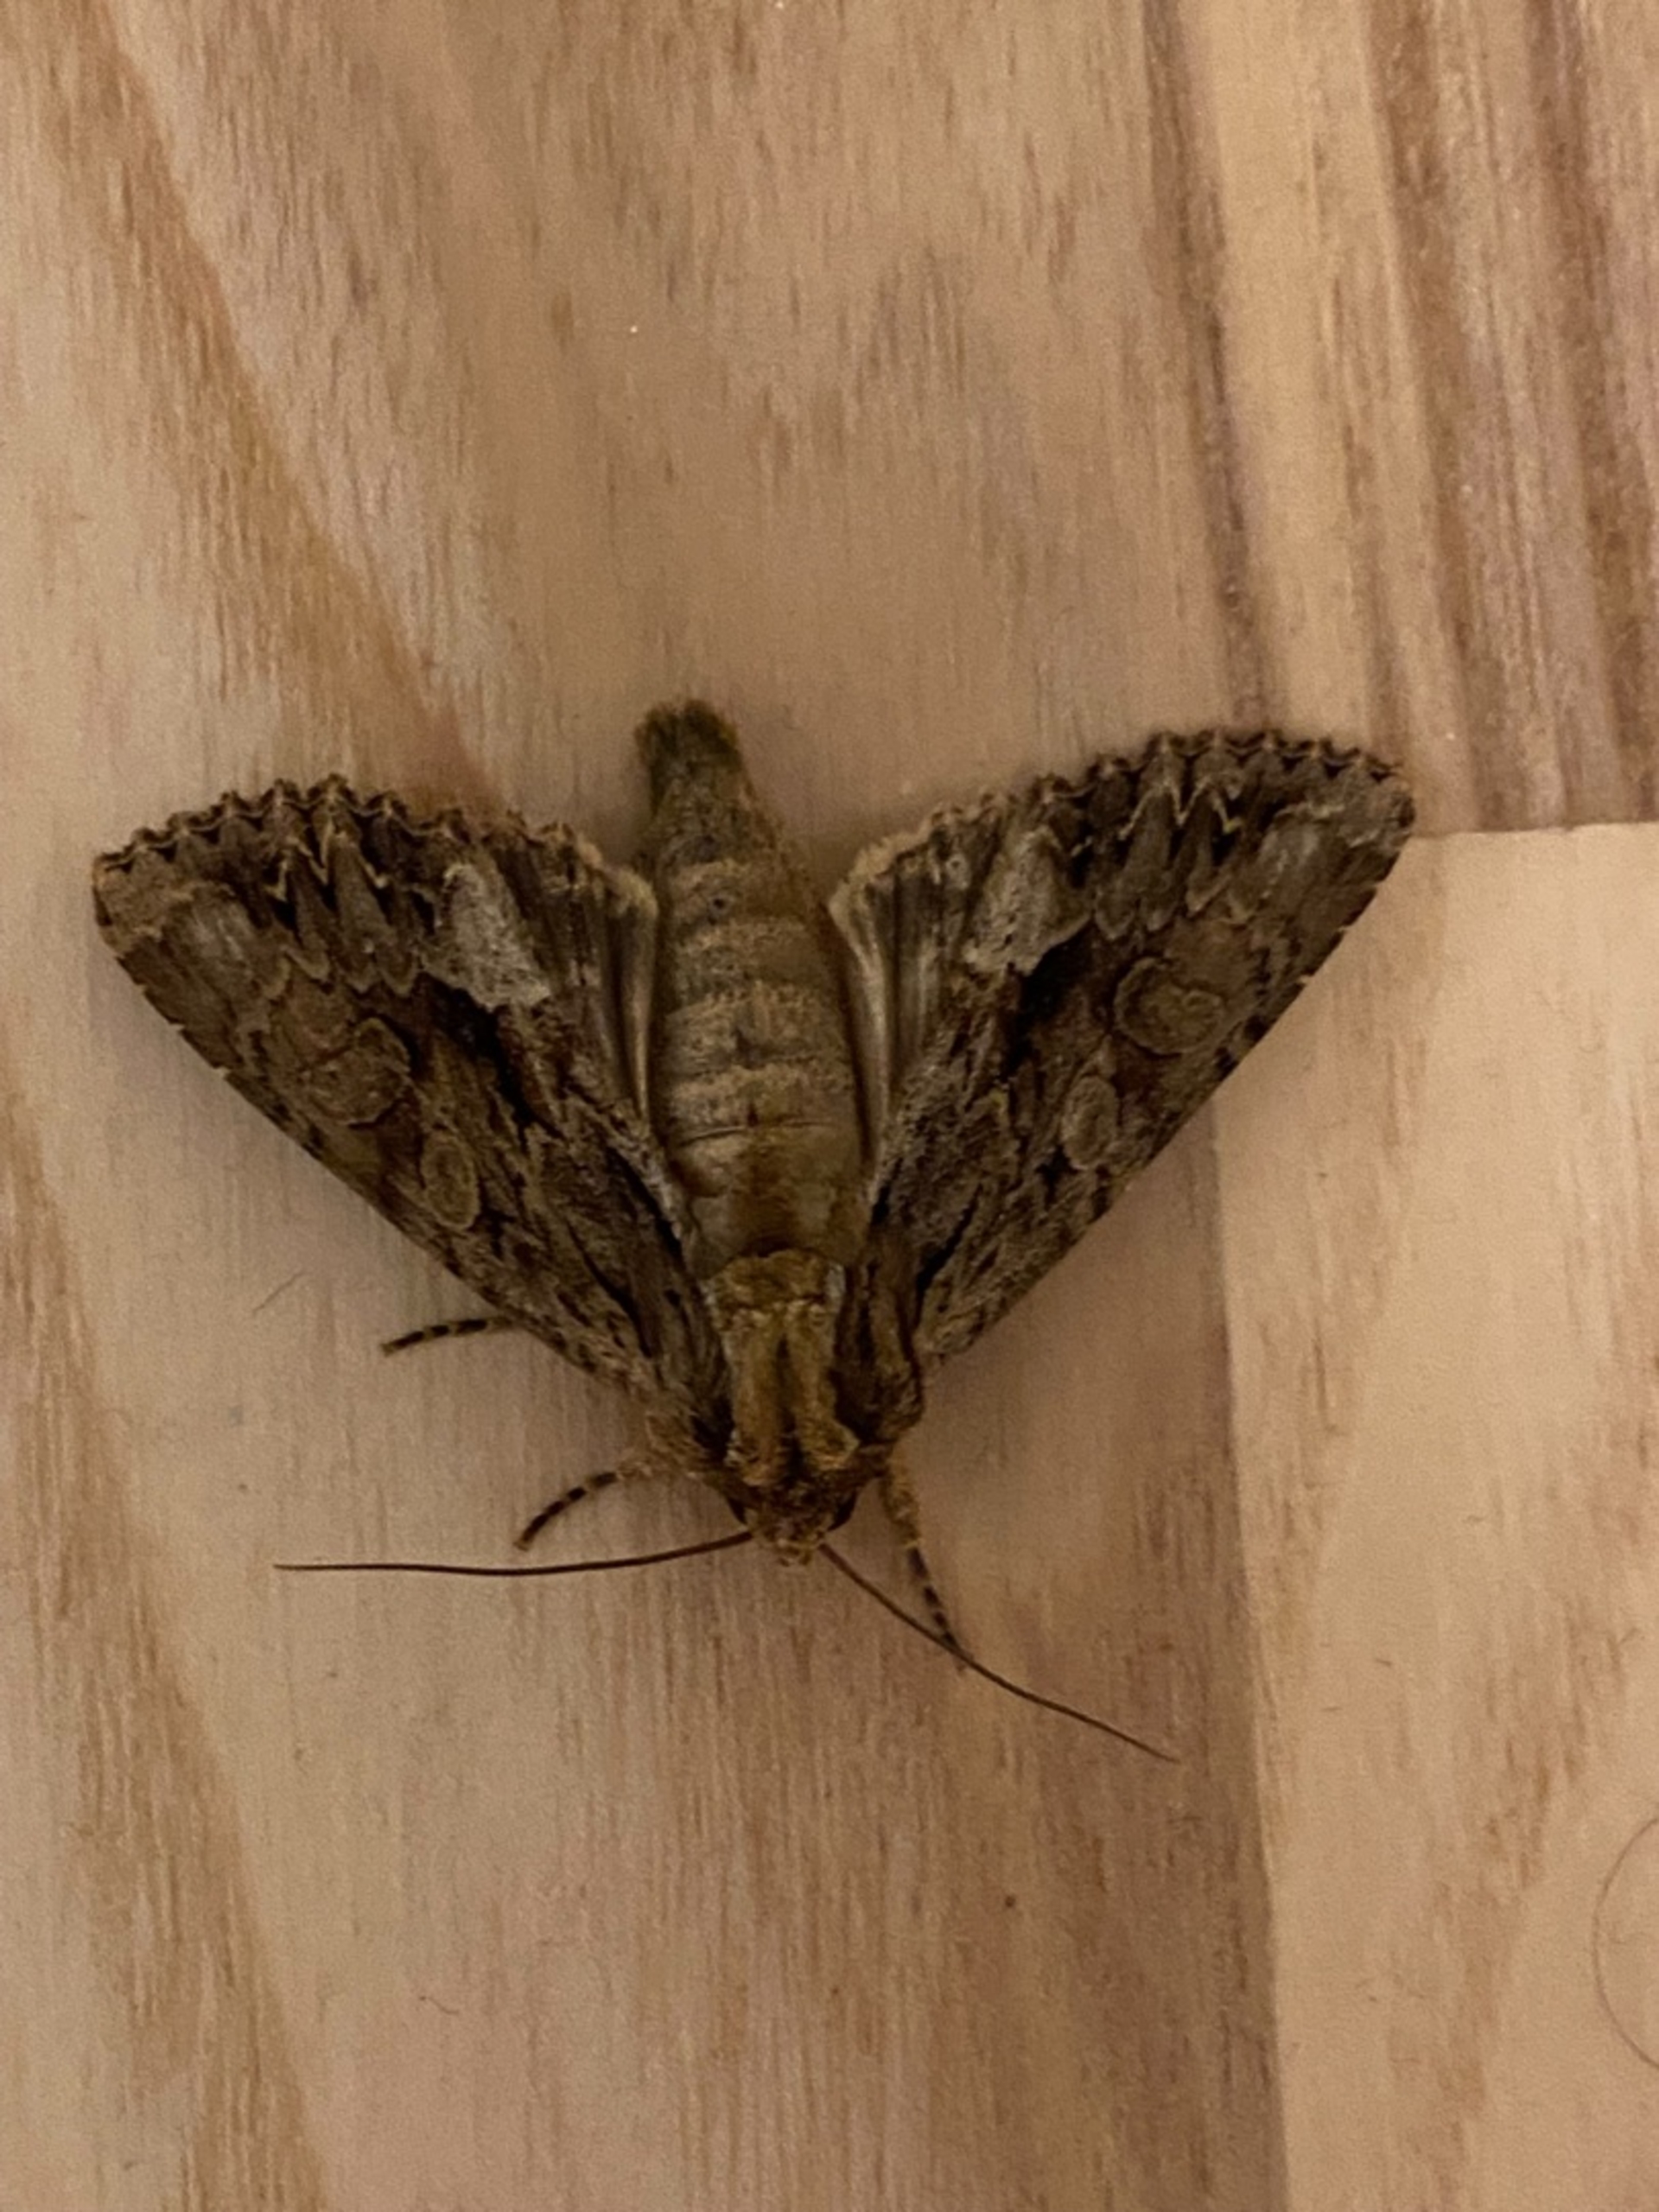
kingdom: Animalia
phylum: Arthropoda
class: Insecta
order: Lepidoptera
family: Noctuidae
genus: Apamea
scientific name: Apamea monoglypha
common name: Jordugle
